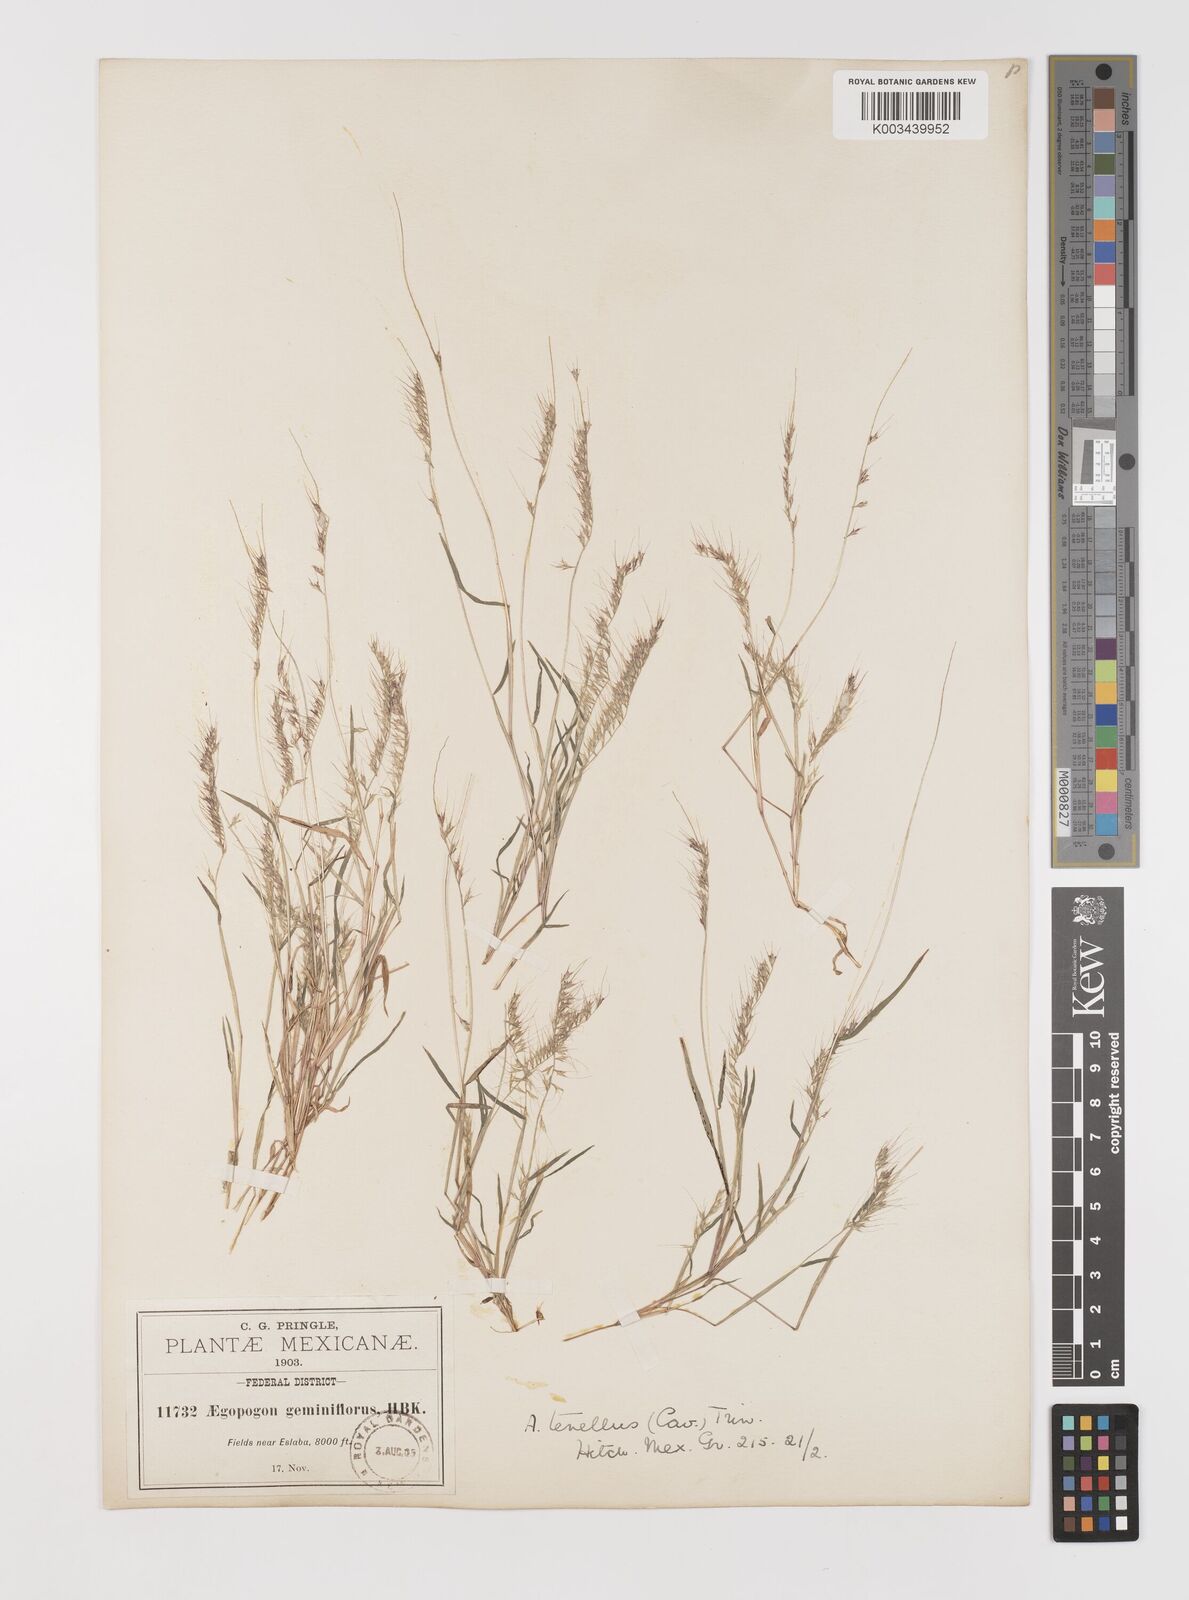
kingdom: Plantae
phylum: Tracheophyta
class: Liliopsida
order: Poales
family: Poaceae
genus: Muhlenbergia
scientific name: Muhlenbergia uniseta
